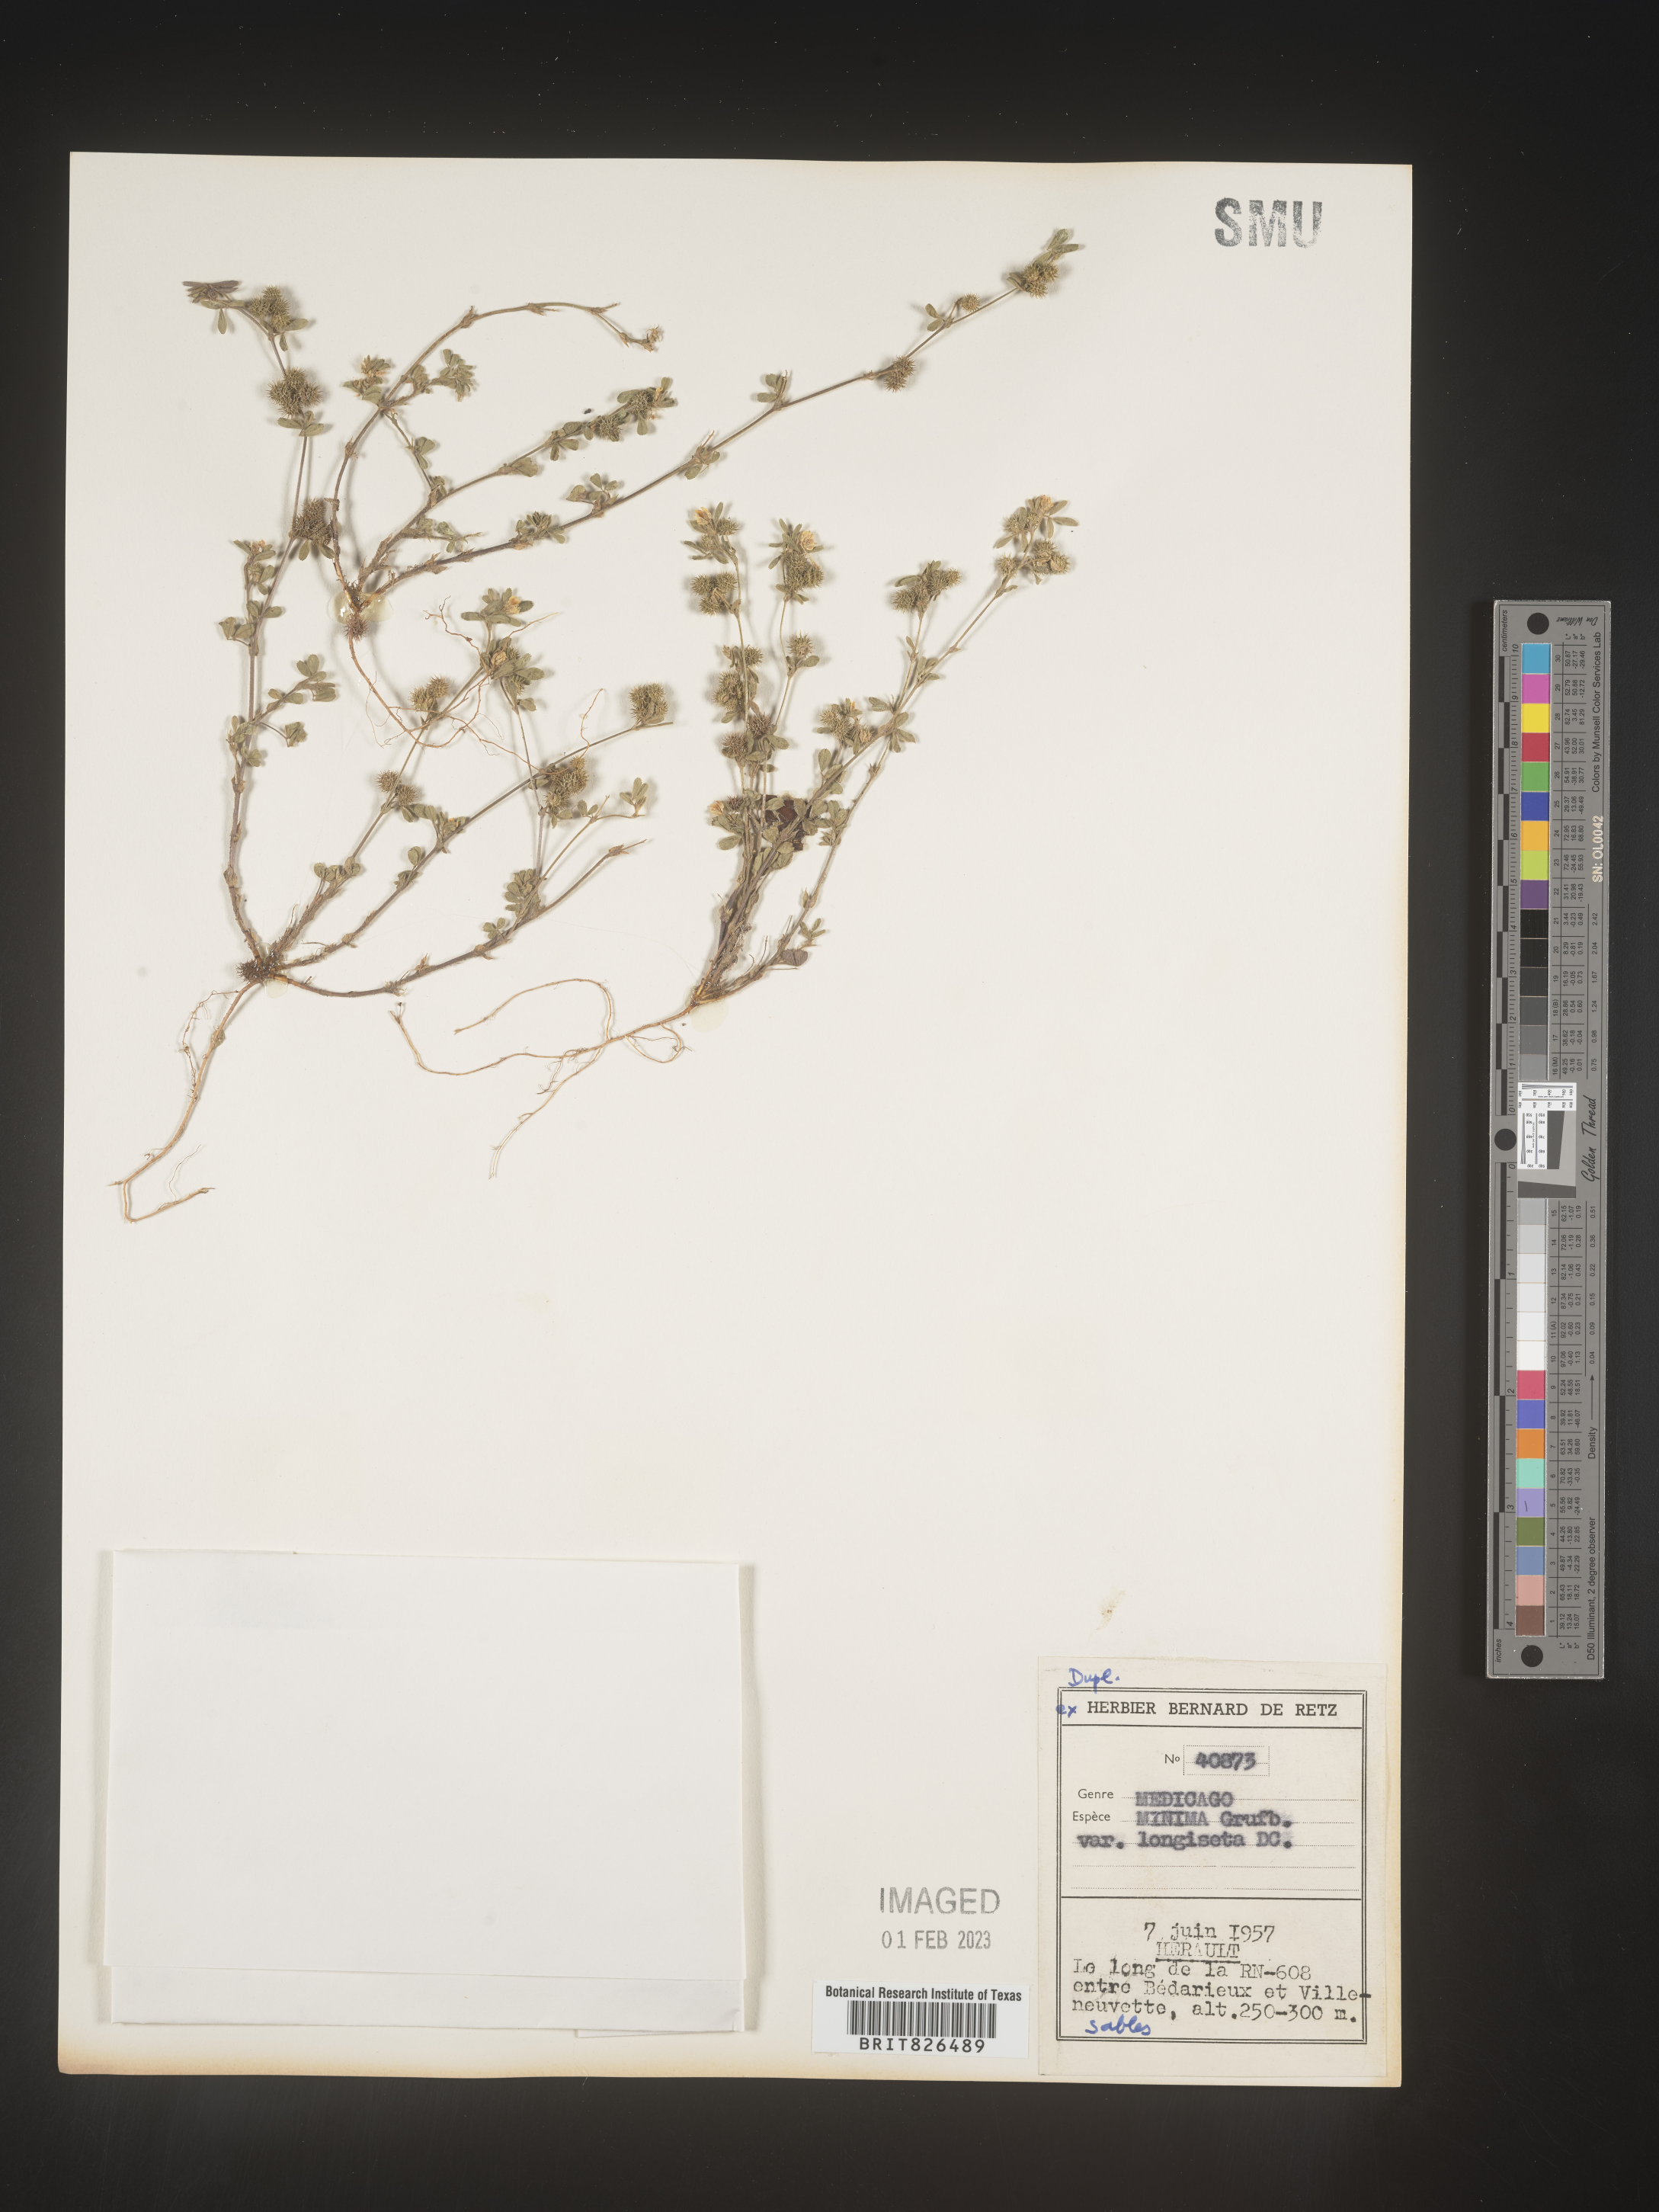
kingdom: Plantae
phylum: Tracheophyta
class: Magnoliopsida
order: Fabales
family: Fabaceae
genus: Medicago
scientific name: Medicago
